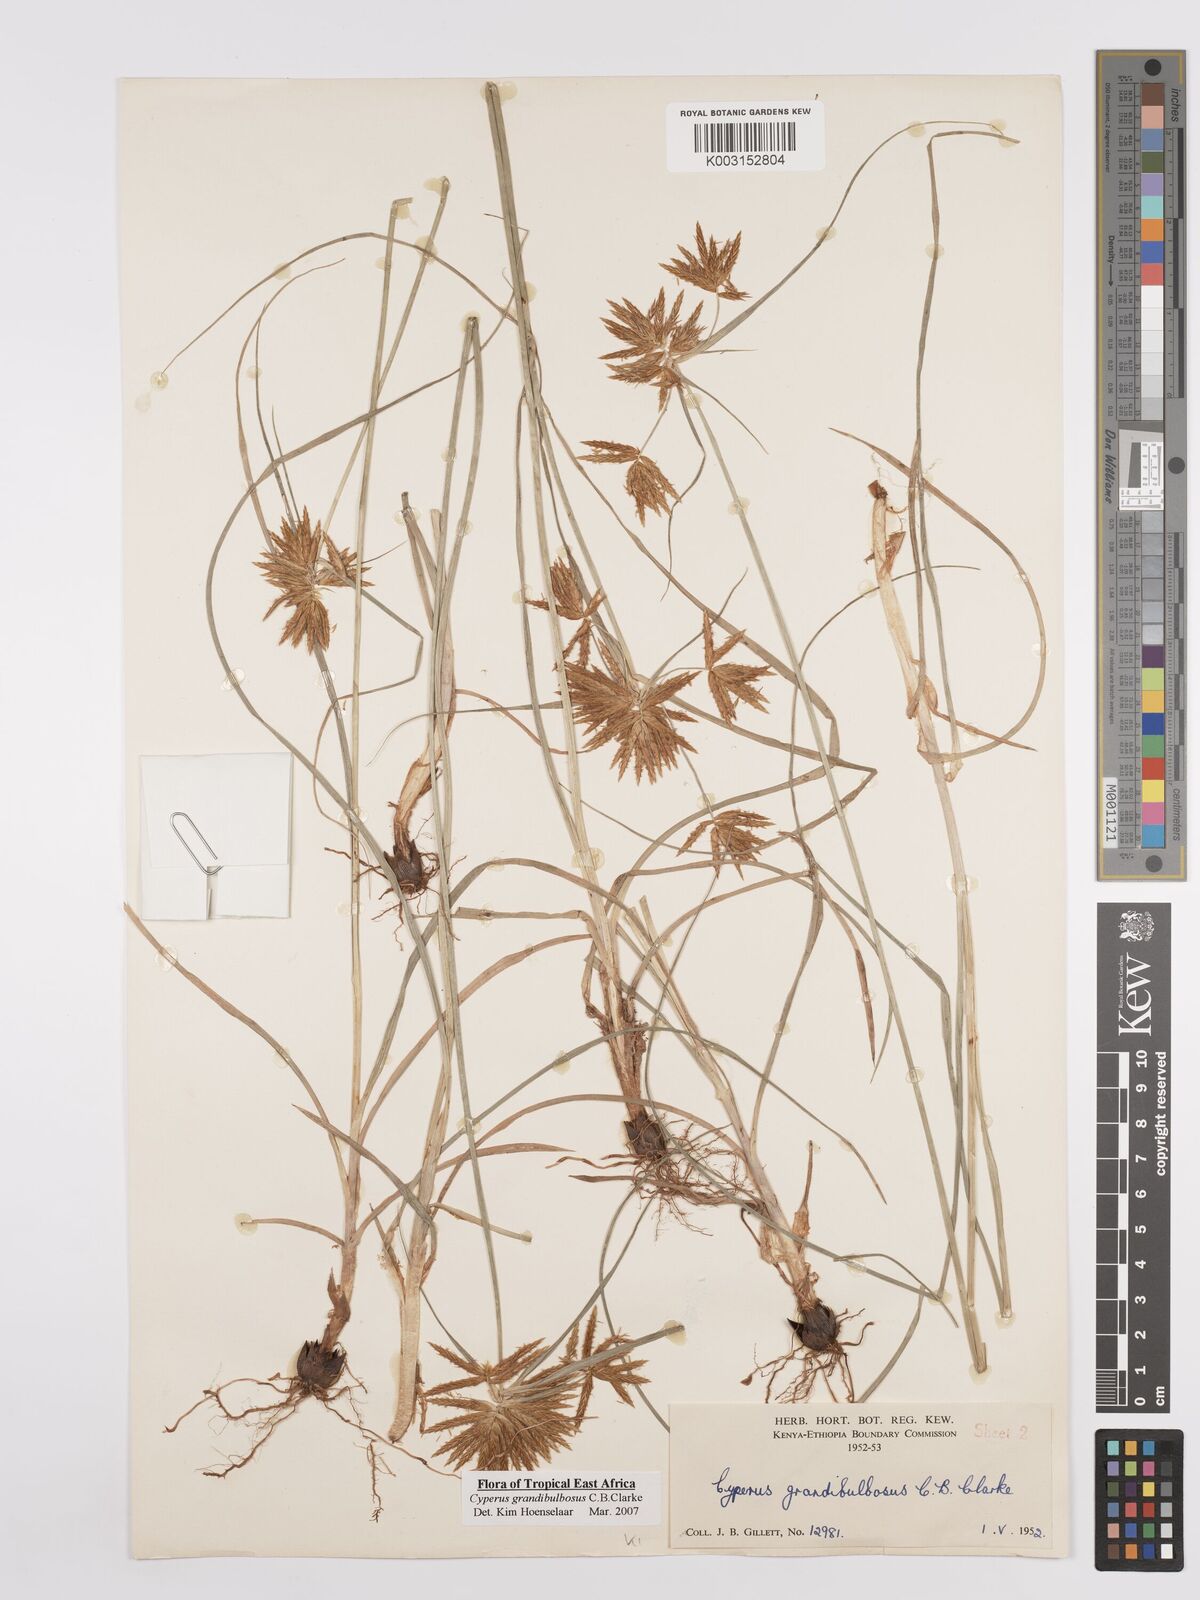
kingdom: Plantae
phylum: Tracheophyta
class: Liliopsida
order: Poales
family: Cyperaceae
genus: Cyperus
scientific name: Cyperus grandibulbosus
